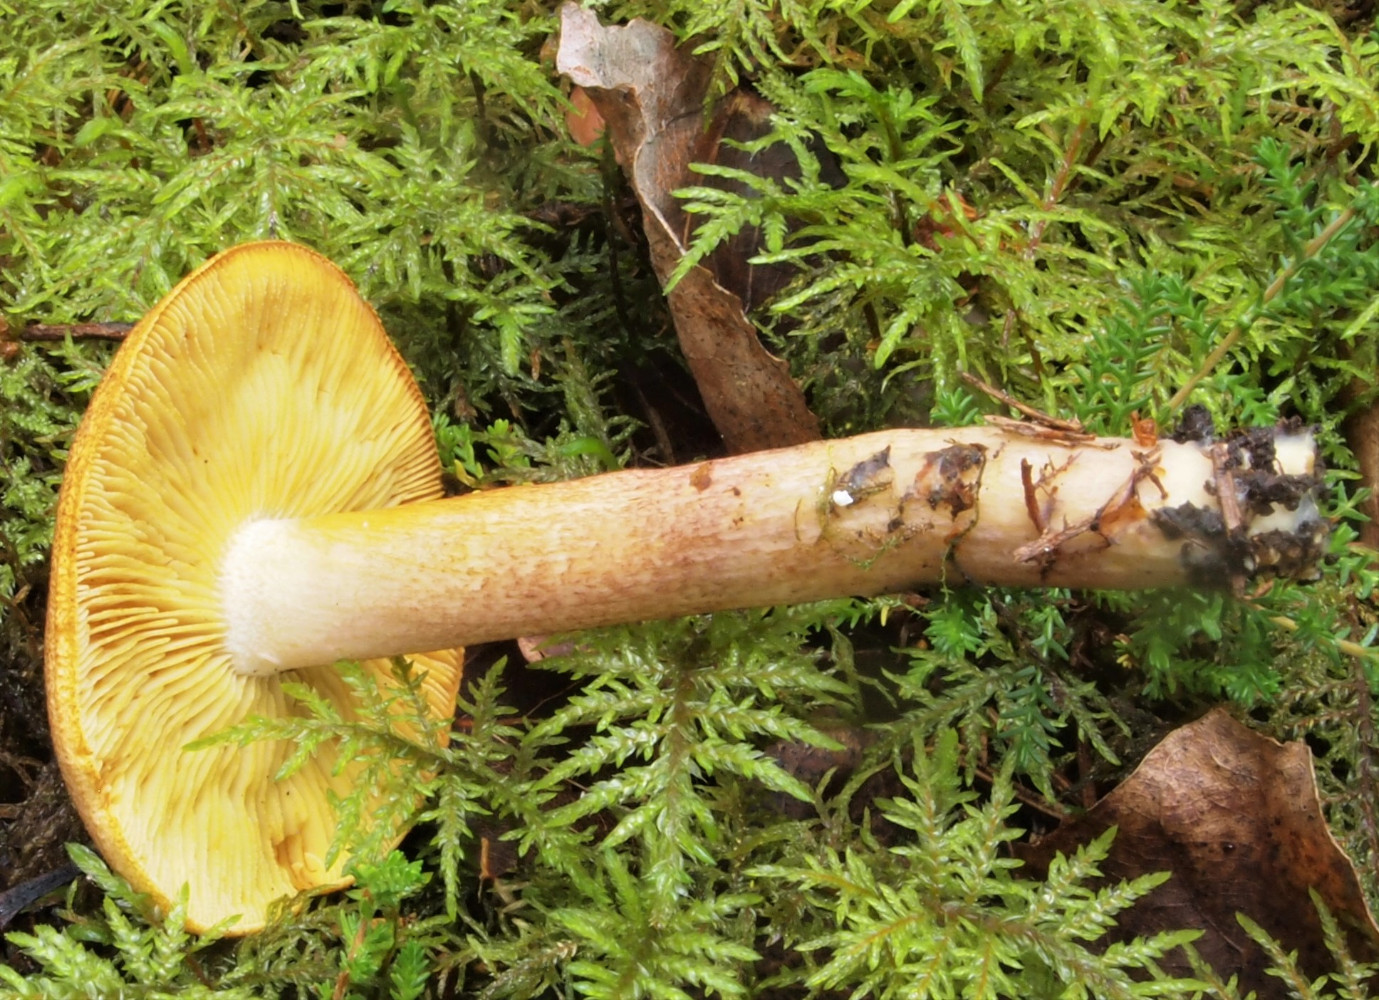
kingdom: Fungi
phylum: Basidiomycota
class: Agaricomycetes
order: Agaricales
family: Tricholomataceae
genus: Tricholomopsis
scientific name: Tricholomopsis rutilans
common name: purpur-væbnerhat
